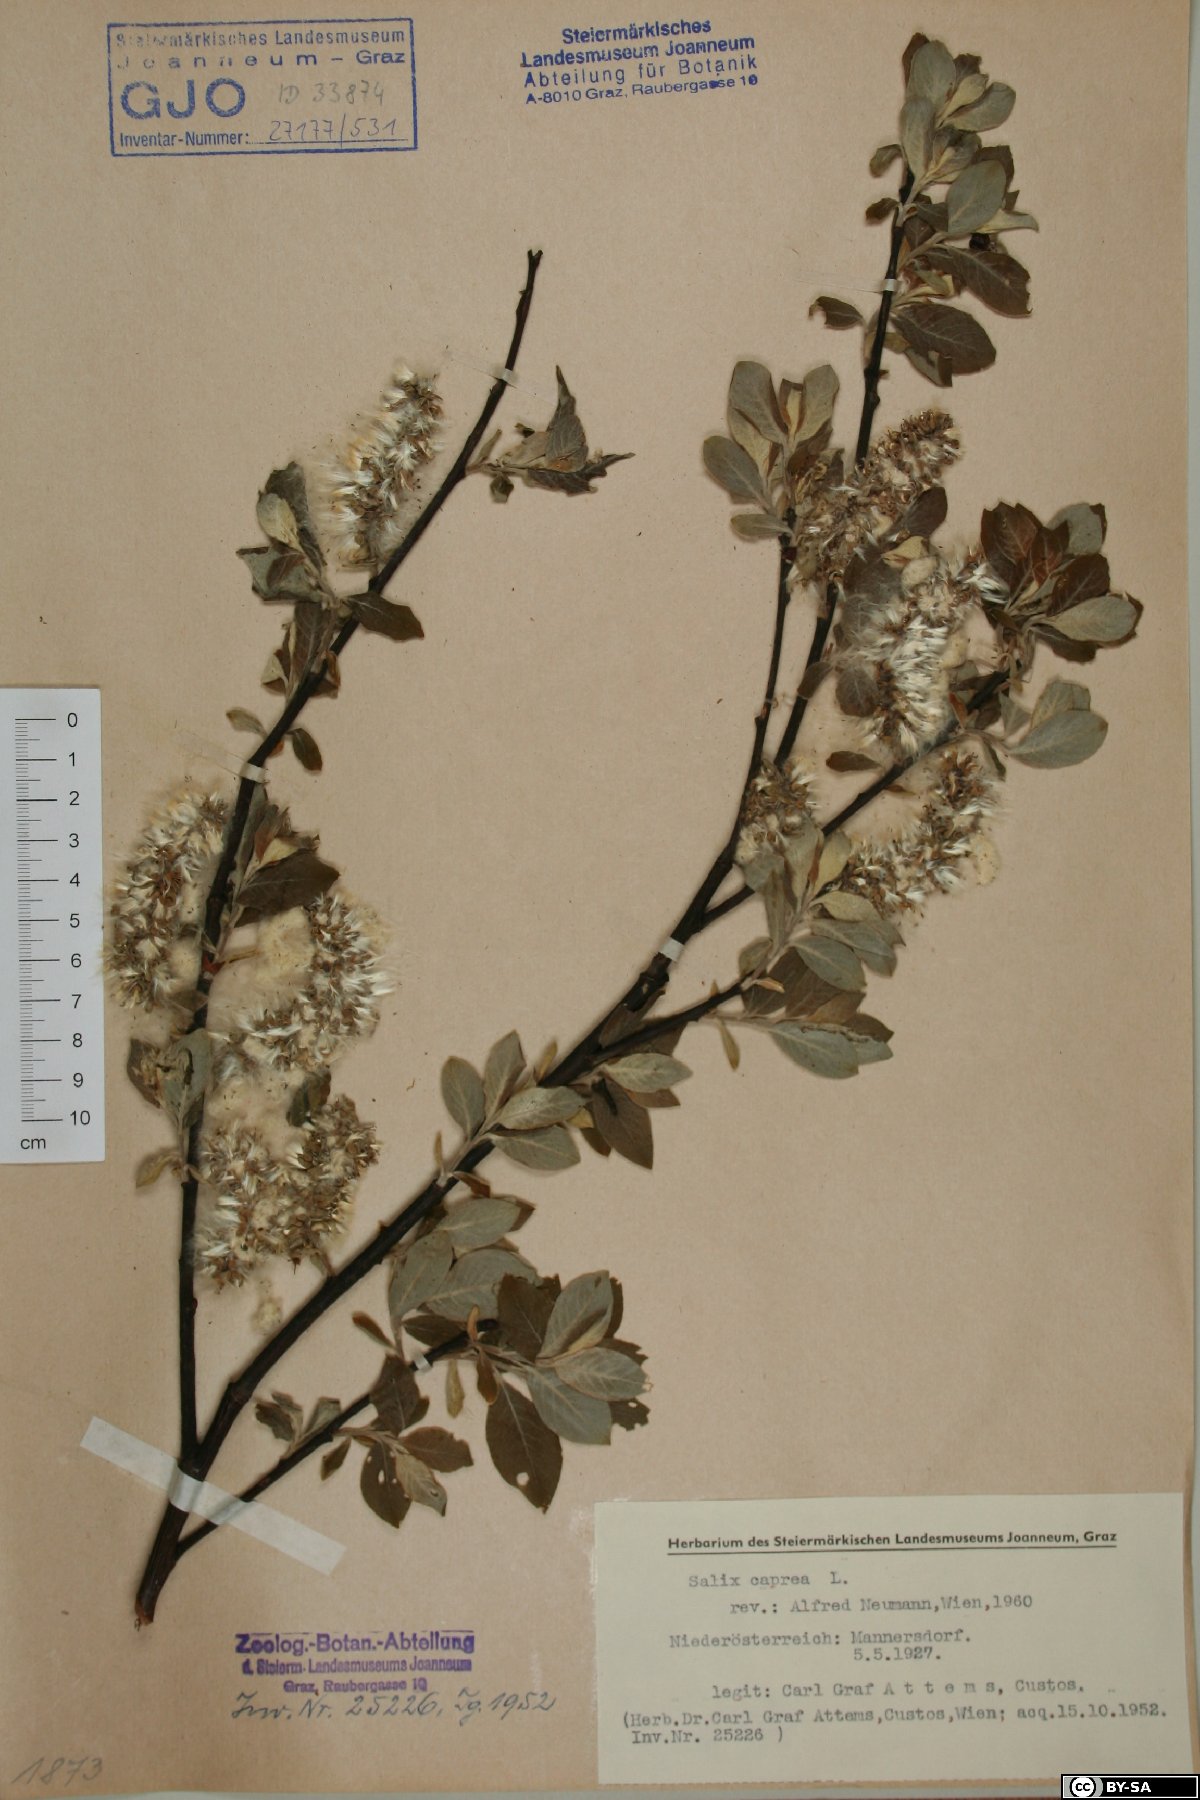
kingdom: Plantae
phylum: Tracheophyta
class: Magnoliopsida
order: Malpighiales
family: Salicaceae
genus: Salix
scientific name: Salix caprea
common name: Goat willow
